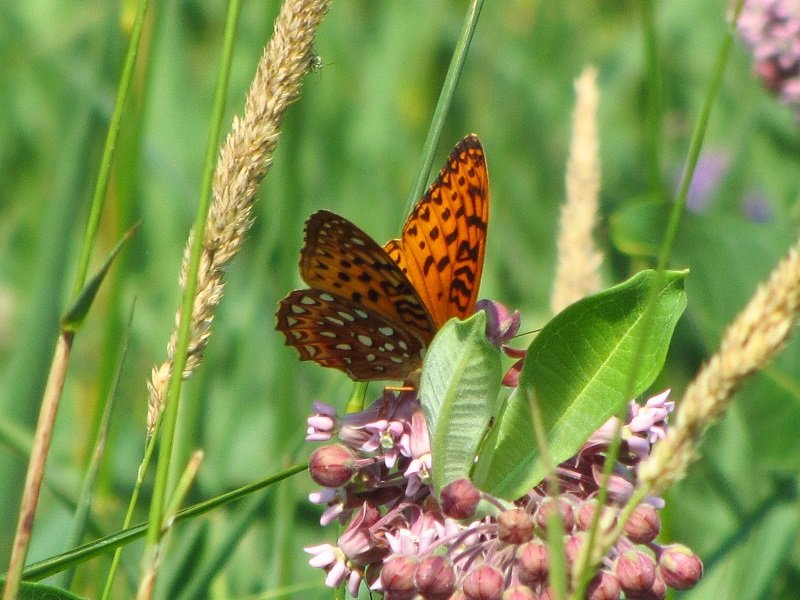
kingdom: Animalia
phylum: Arthropoda
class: Insecta
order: Lepidoptera
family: Nymphalidae
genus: Speyeria
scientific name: Speyeria aphrodite
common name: Aphrodite Fritillary
